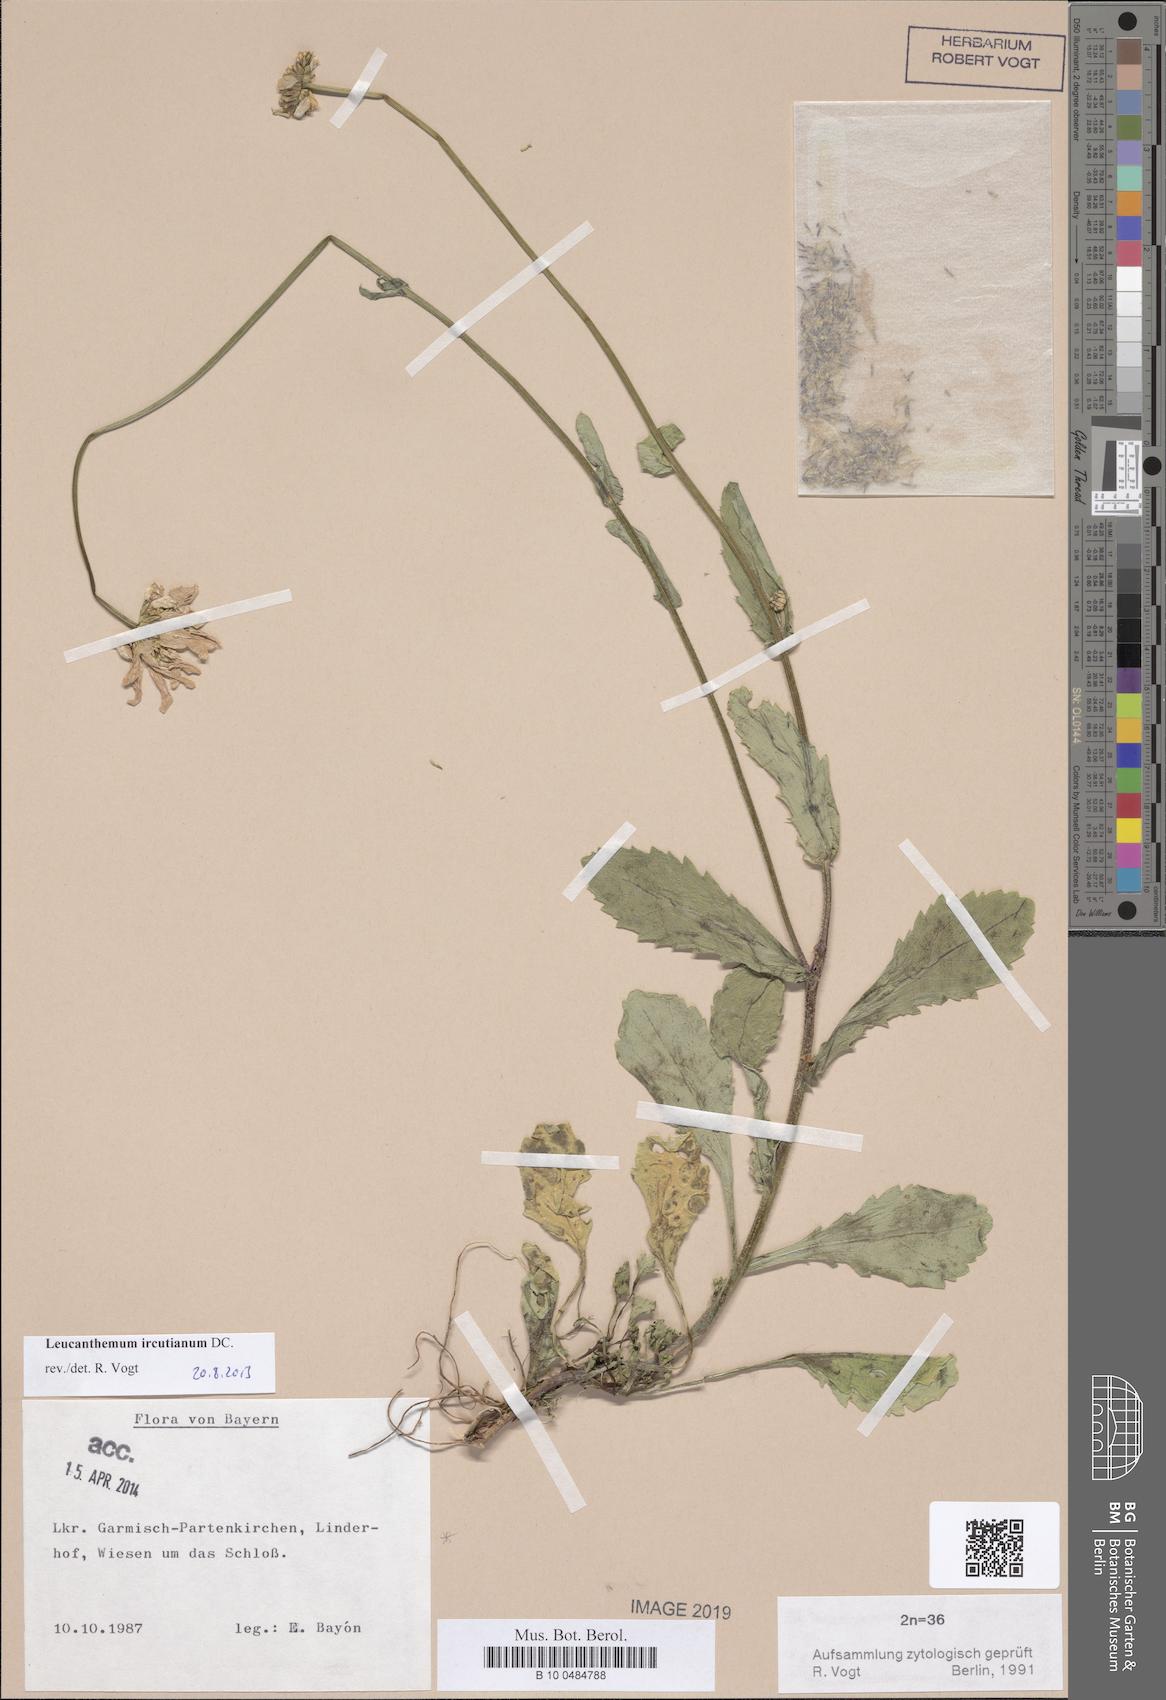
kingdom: Plantae
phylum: Tracheophyta
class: Magnoliopsida
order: Asterales
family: Asteraceae
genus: Leucanthemum
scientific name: Leucanthemum ircutianum
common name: Daisy
